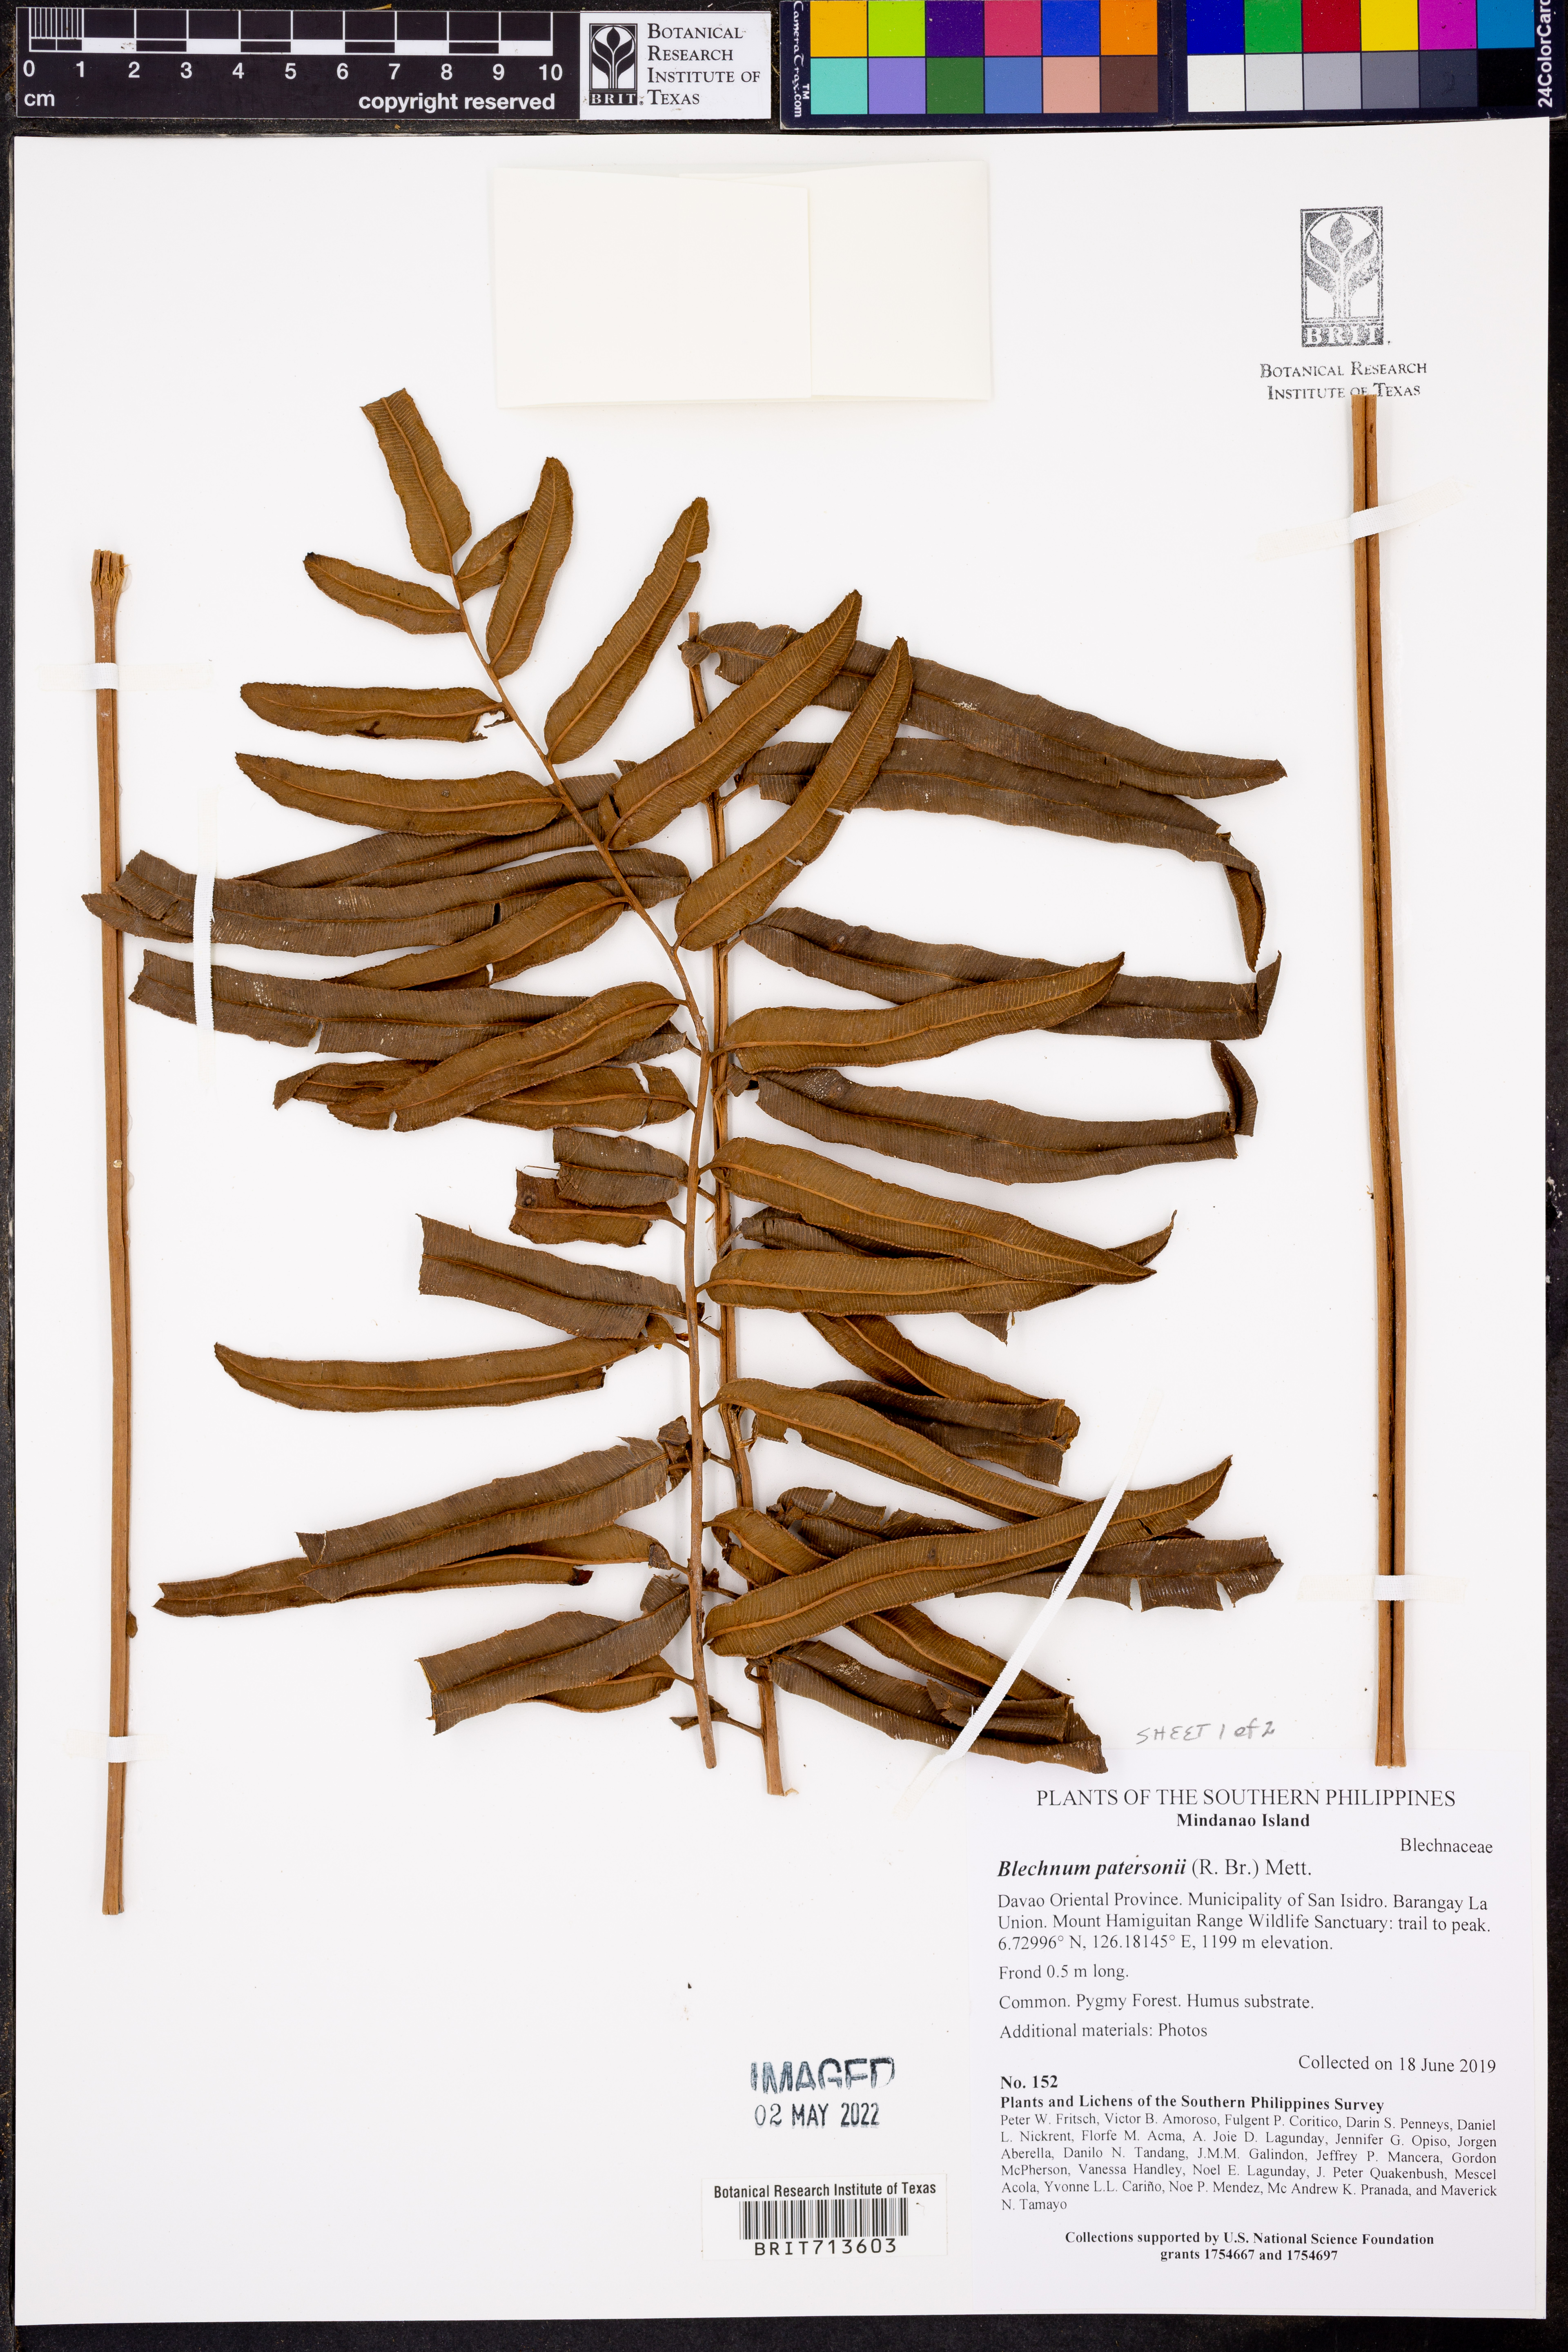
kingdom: Plantae
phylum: Tracheophyta
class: Polypodiopsida
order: Polypodiales
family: Blechnaceae
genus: Austroblechnum
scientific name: Austroblechnum patersonii
